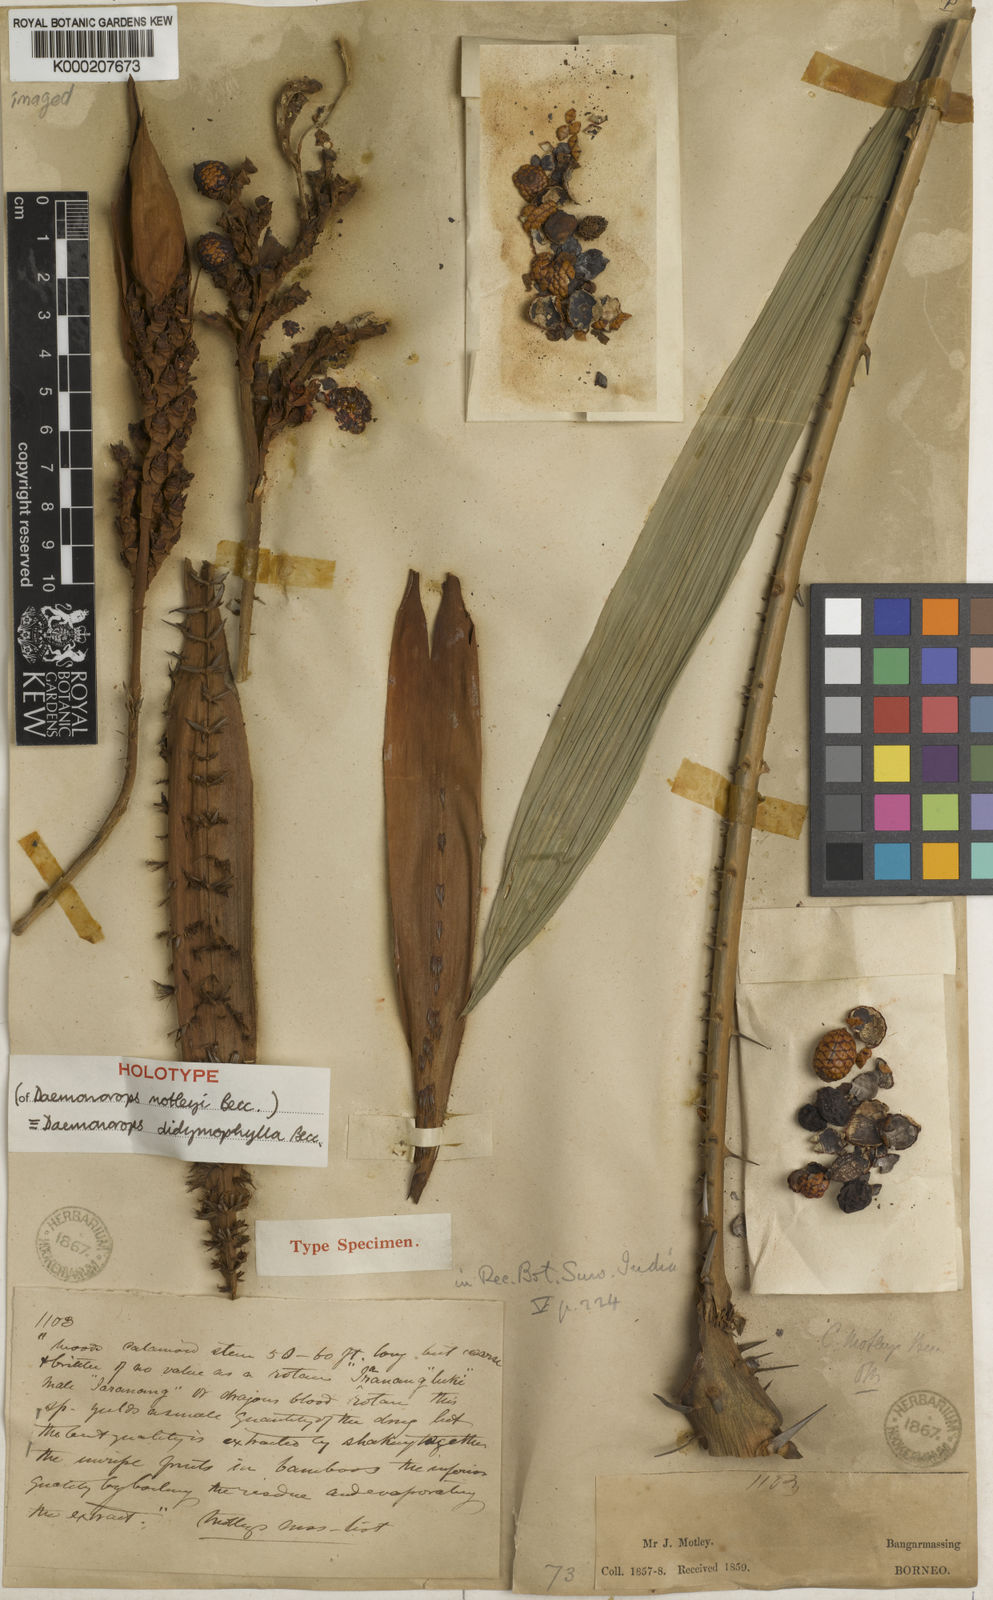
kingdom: Plantae
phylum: Tracheophyta
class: Liliopsida
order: Arecales
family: Arecaceae
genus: Calamus
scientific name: Calamus gracilipes
